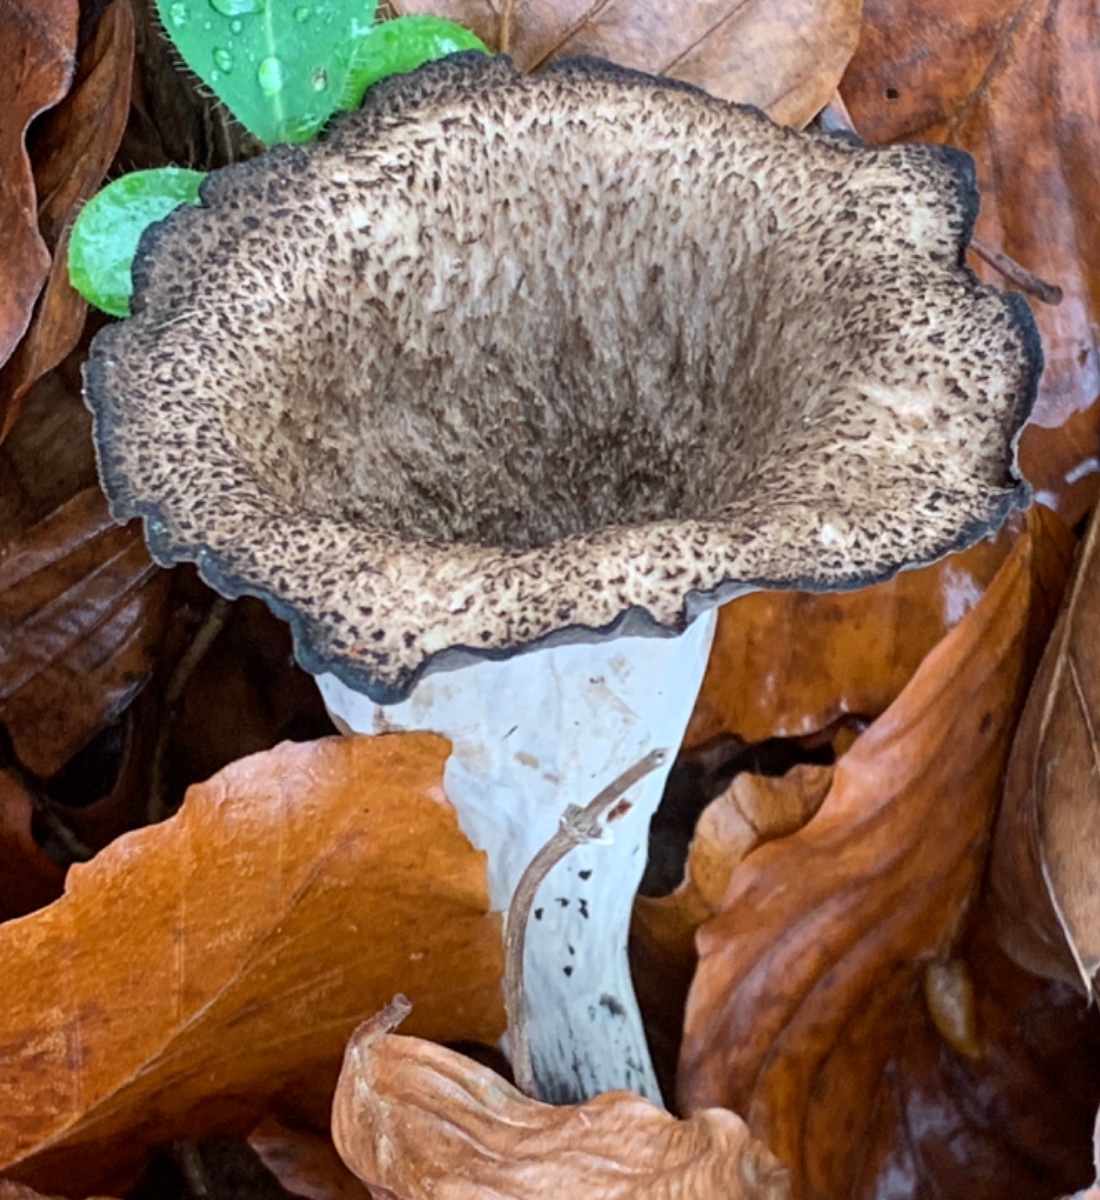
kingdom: Fungi
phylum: Basidiomycota
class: Agaricomycetes
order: Cantharellales
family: Hydnaceae
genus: Craterellus
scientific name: Craterellus cornucopioides
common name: trompetsvamp
